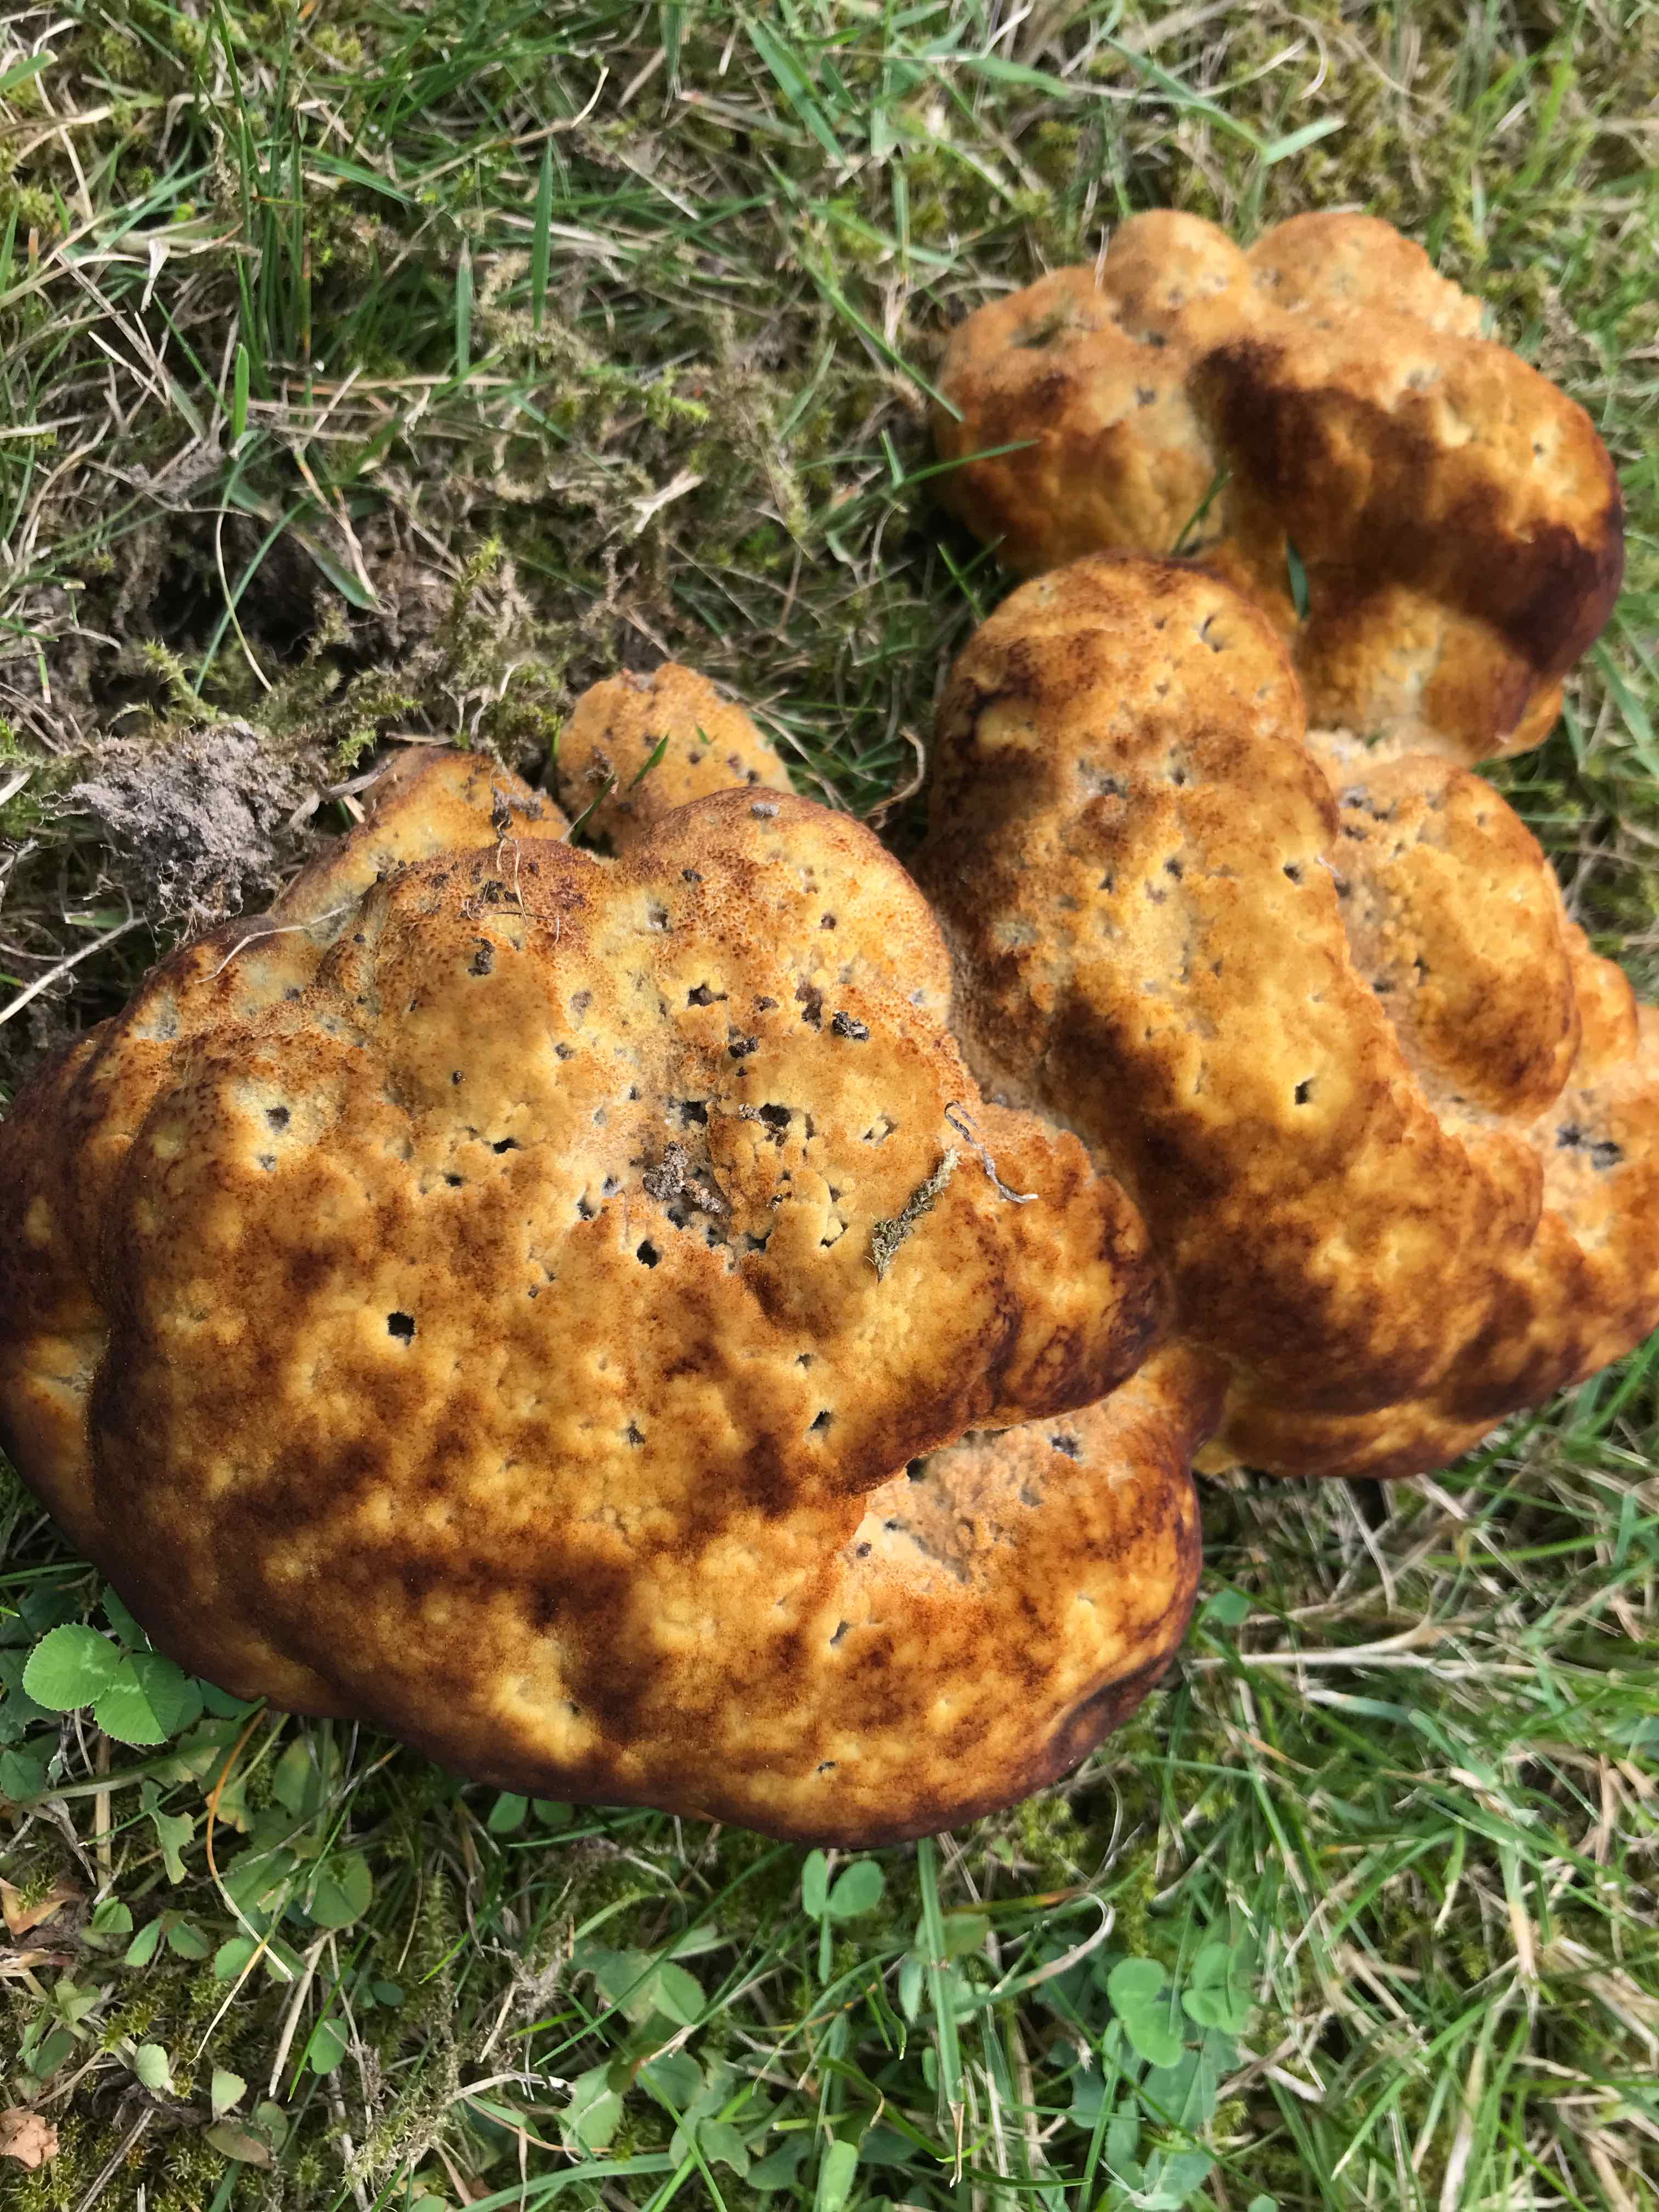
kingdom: Fungi
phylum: Basidiomycota
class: Agaricomycetes
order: Polyporales
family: Laetiporaceae
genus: Phaeolus
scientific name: Phaeolus schweinitzii
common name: brunporesvamp
